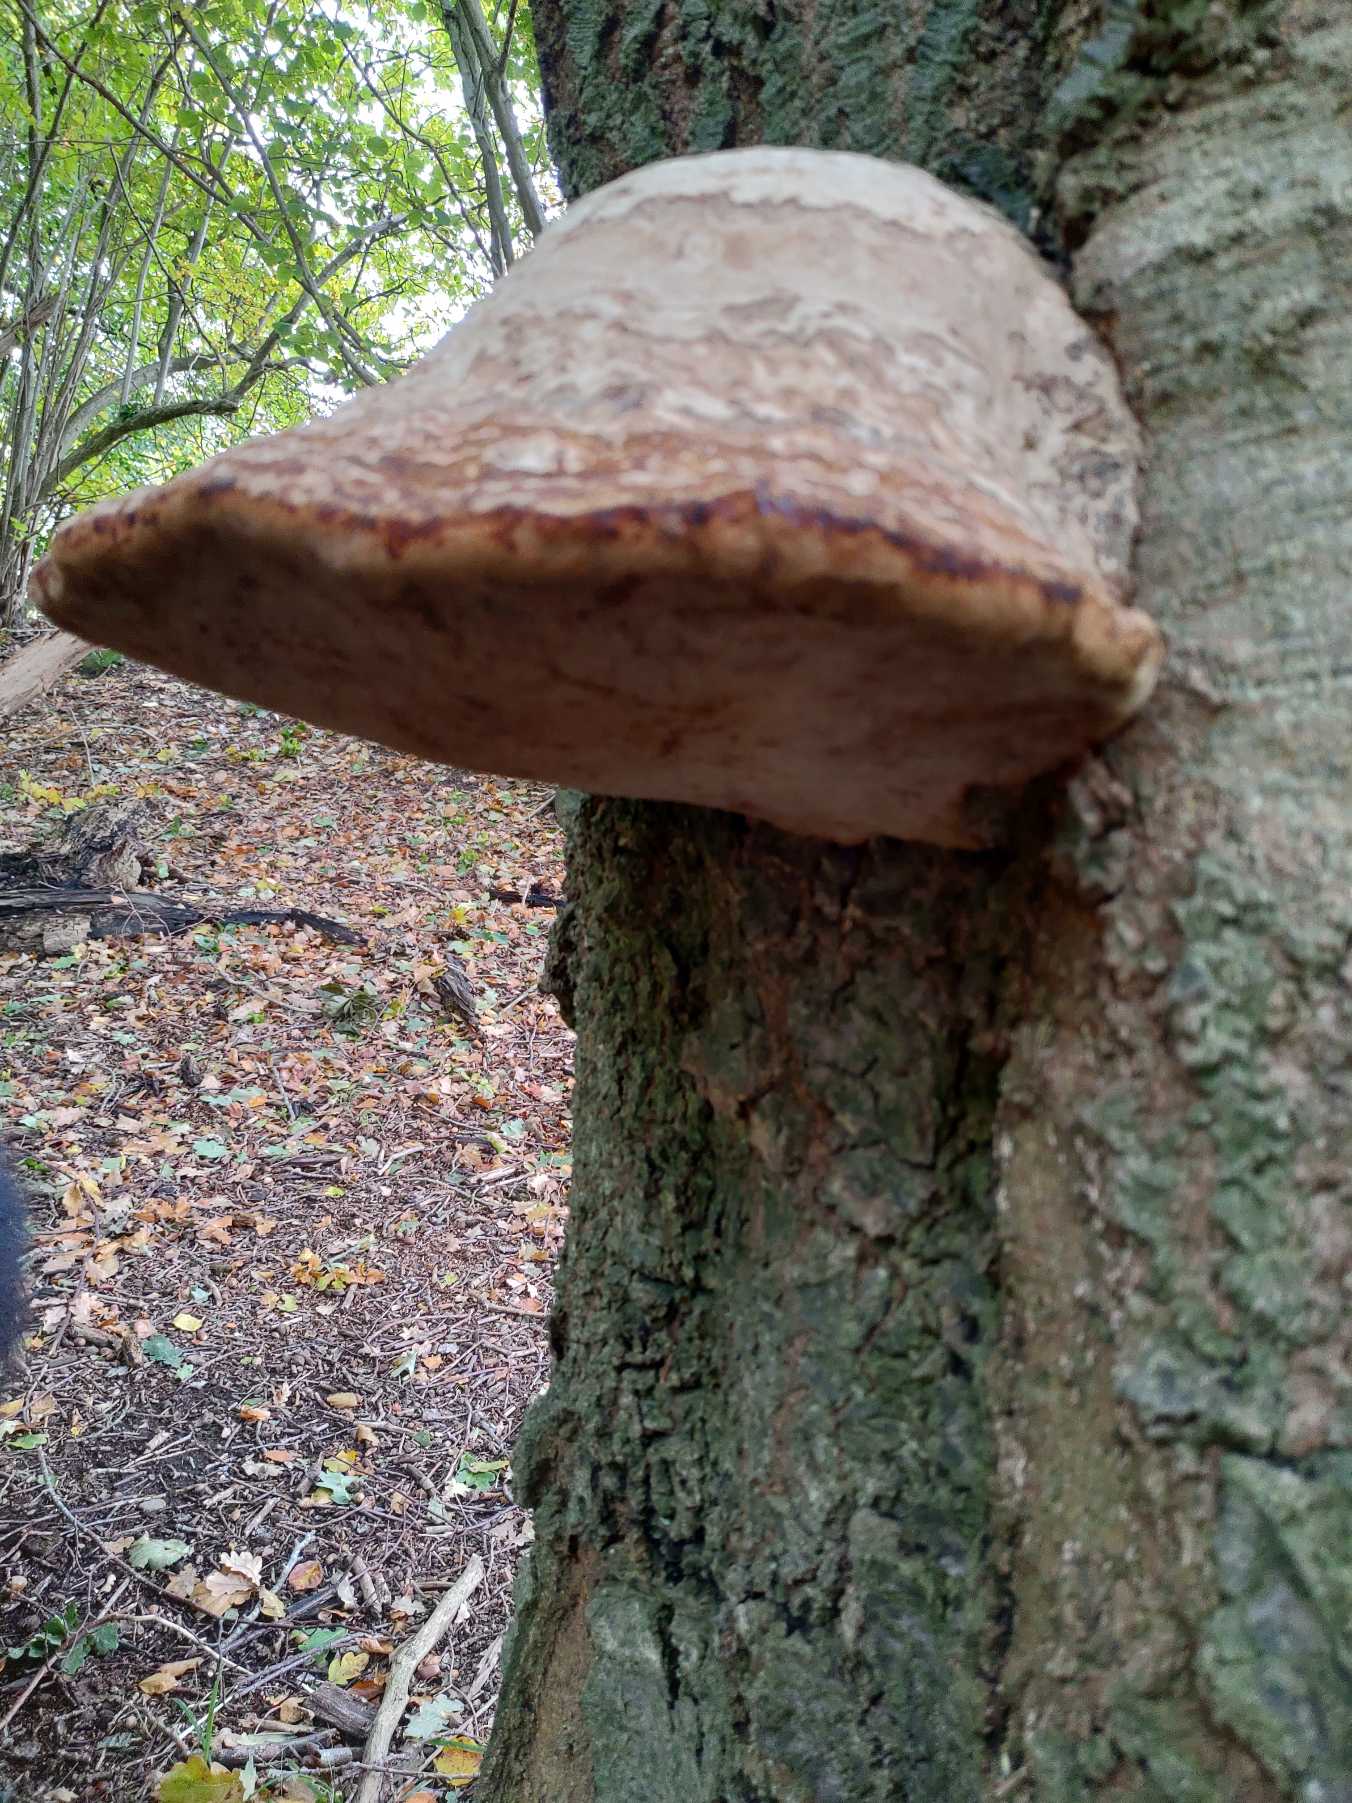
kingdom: Fungi
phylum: Basidiomycota
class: Agaricomycetes
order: Polyporales
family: Polyporaceae
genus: Fomes
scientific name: Fomes fomentarius
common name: Tøndersvamp
